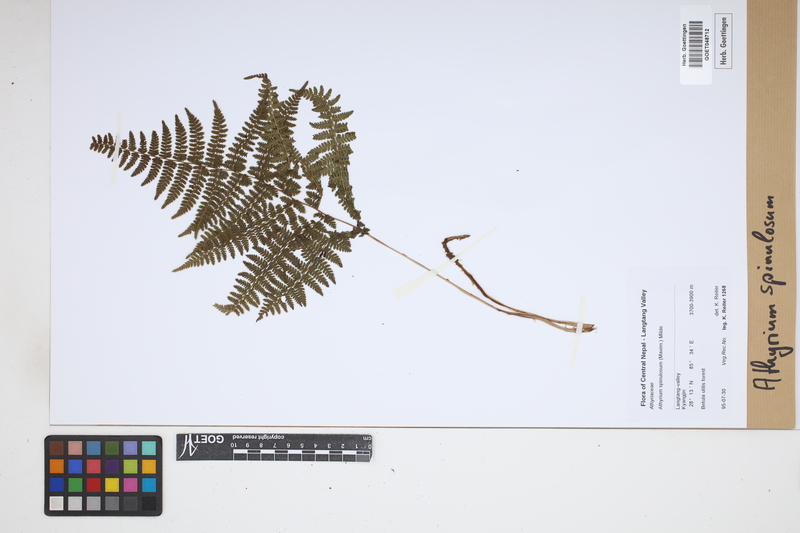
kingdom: Plantae
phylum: Tracheophyta
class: Polypodiopsida
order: Polypodiales
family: Athyriaceae
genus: Athyrium
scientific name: Athyrium spinulosum
